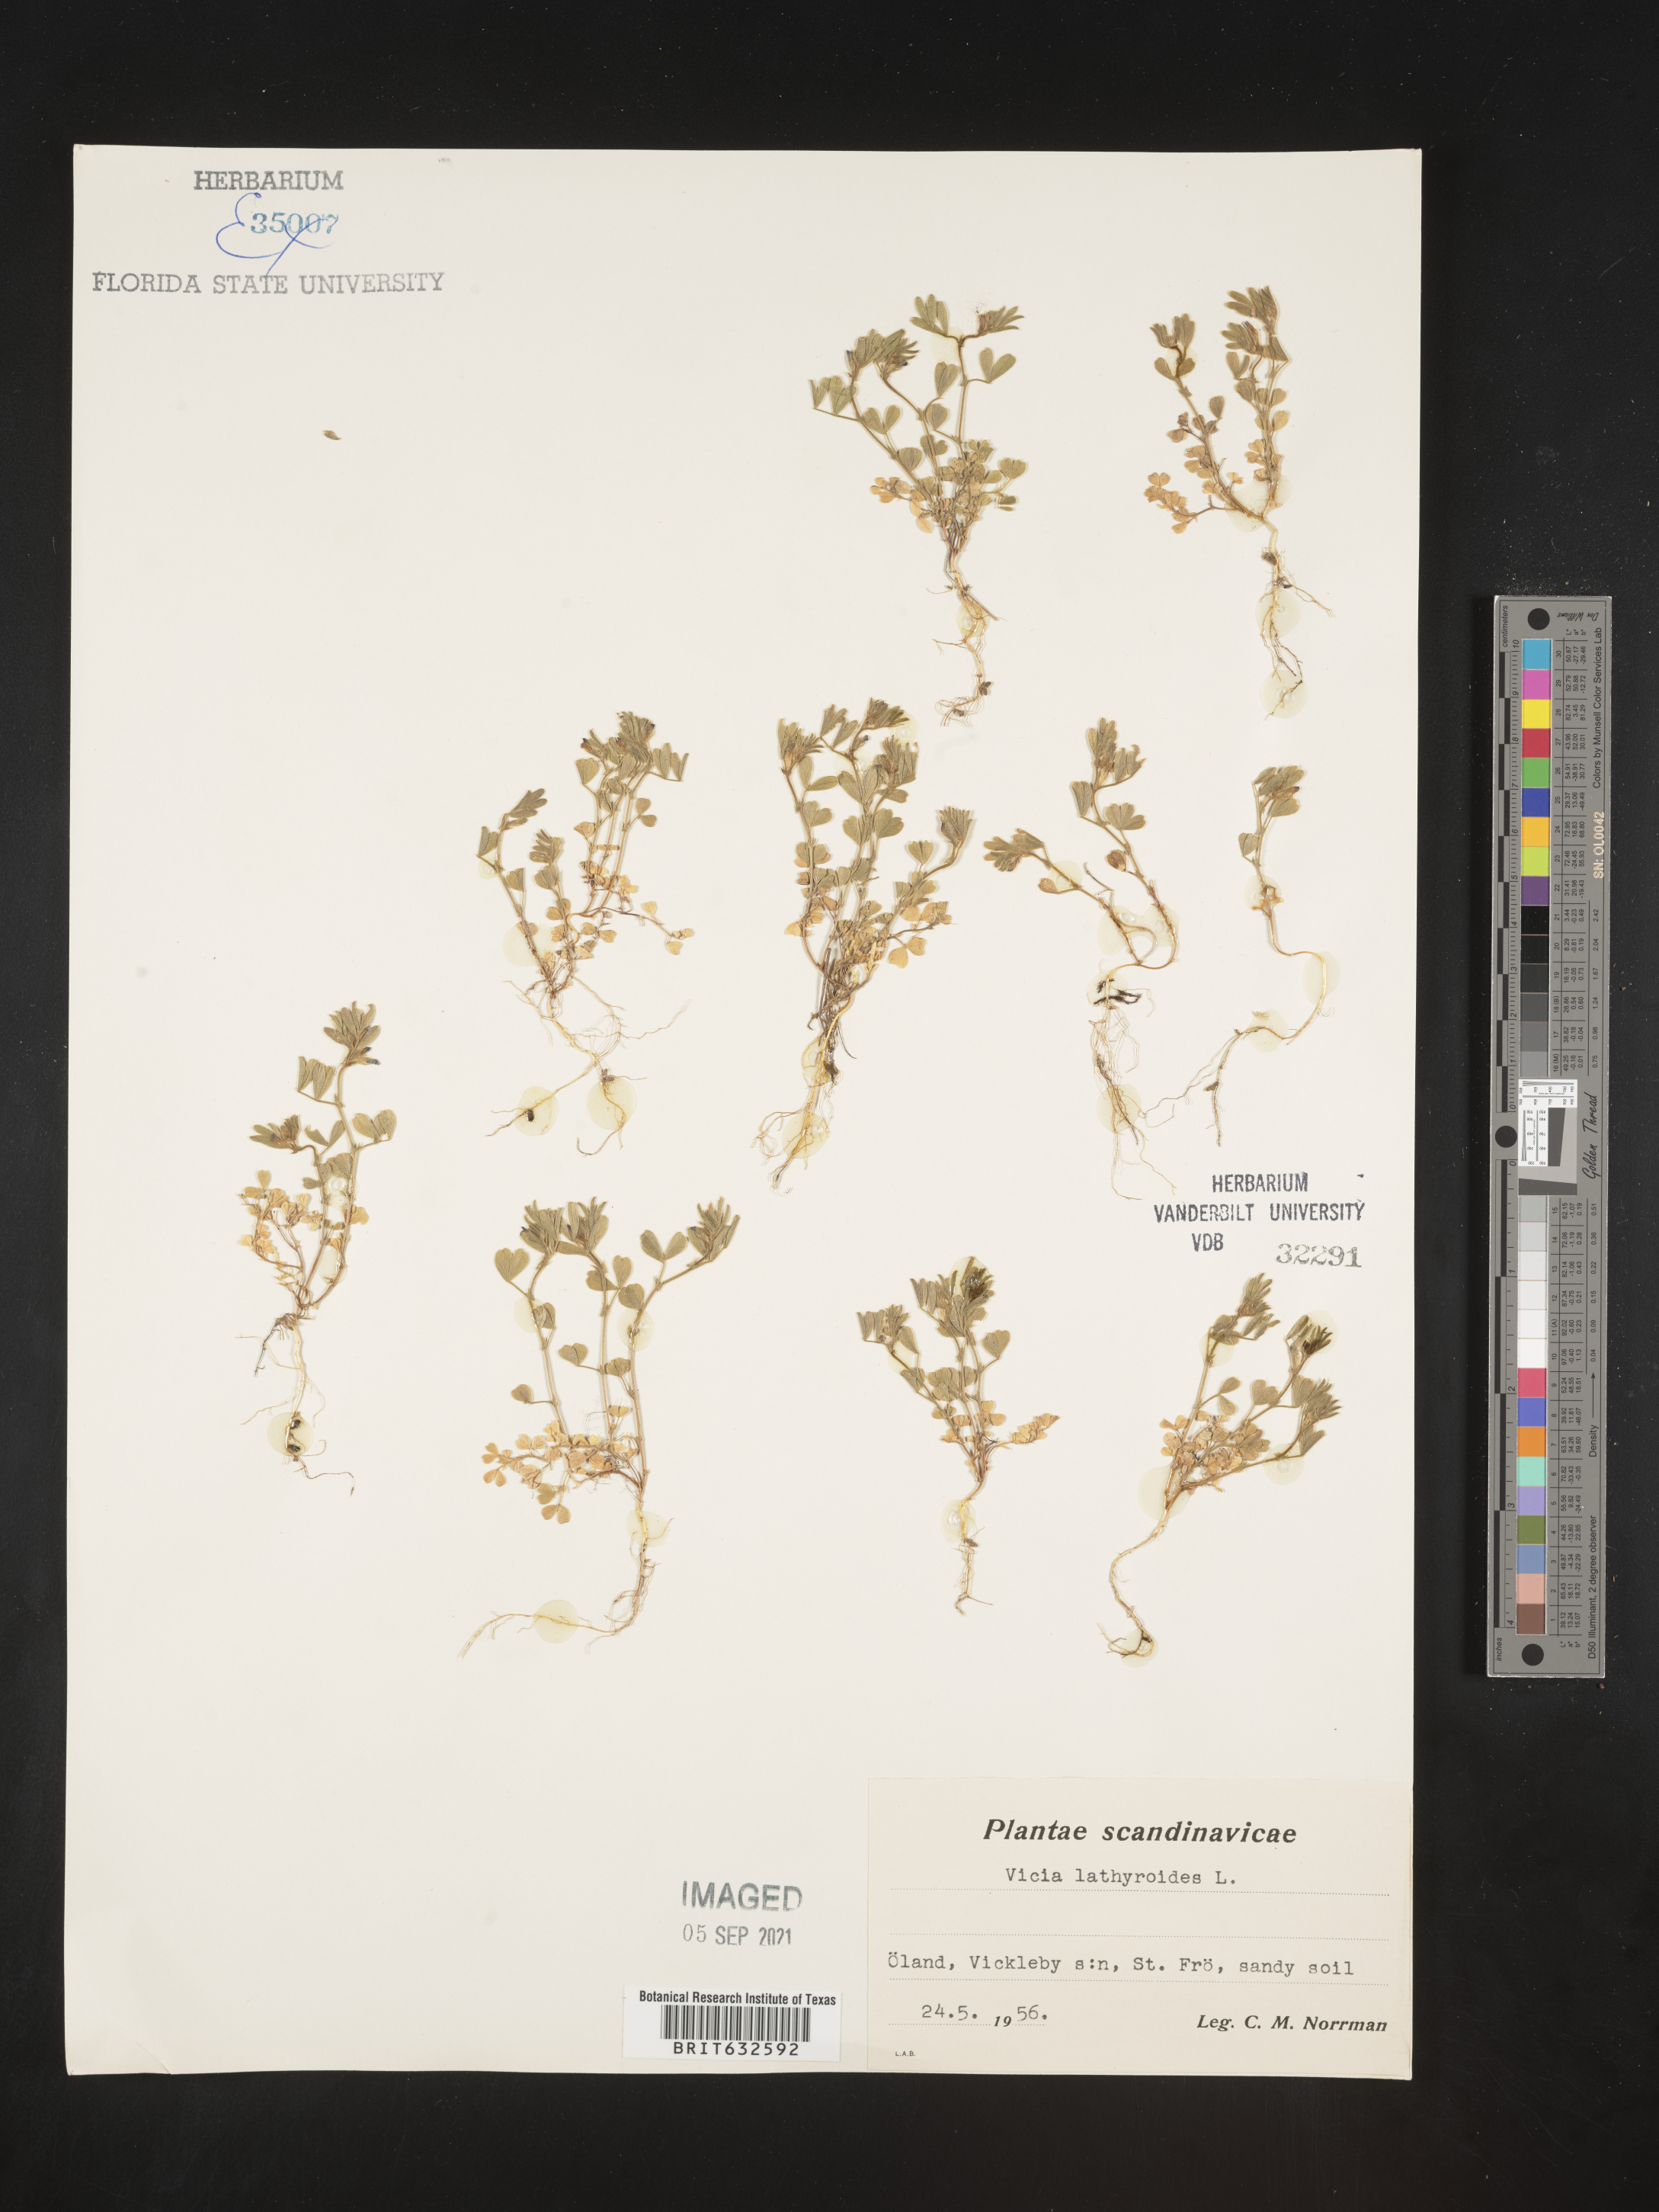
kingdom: Plantae
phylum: Tracheophyta
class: Magnoliopsida
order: Fabales
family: Fabaceae
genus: Vicia
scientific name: Vicia
